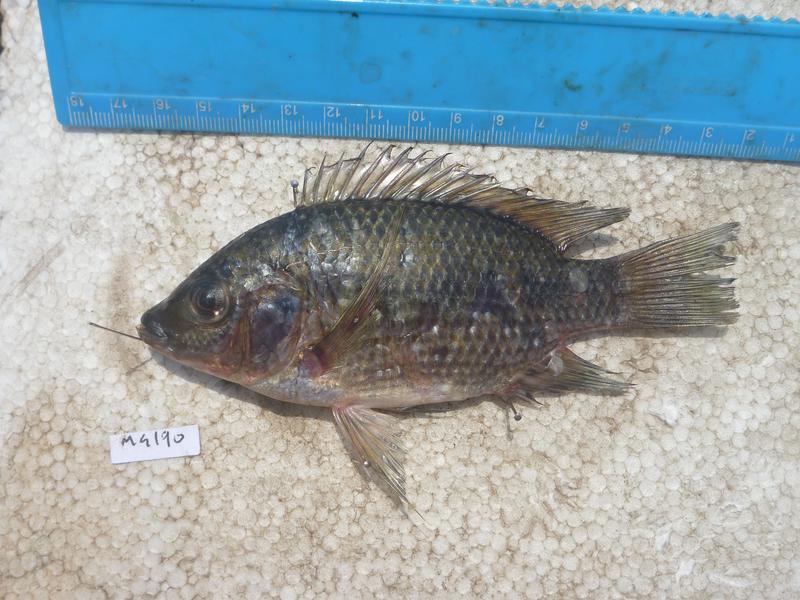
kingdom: Animalia
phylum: Chordata
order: Perciformes
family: Cichlidae
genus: Oreochromis
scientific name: Oreochromis karomo
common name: Karomo
